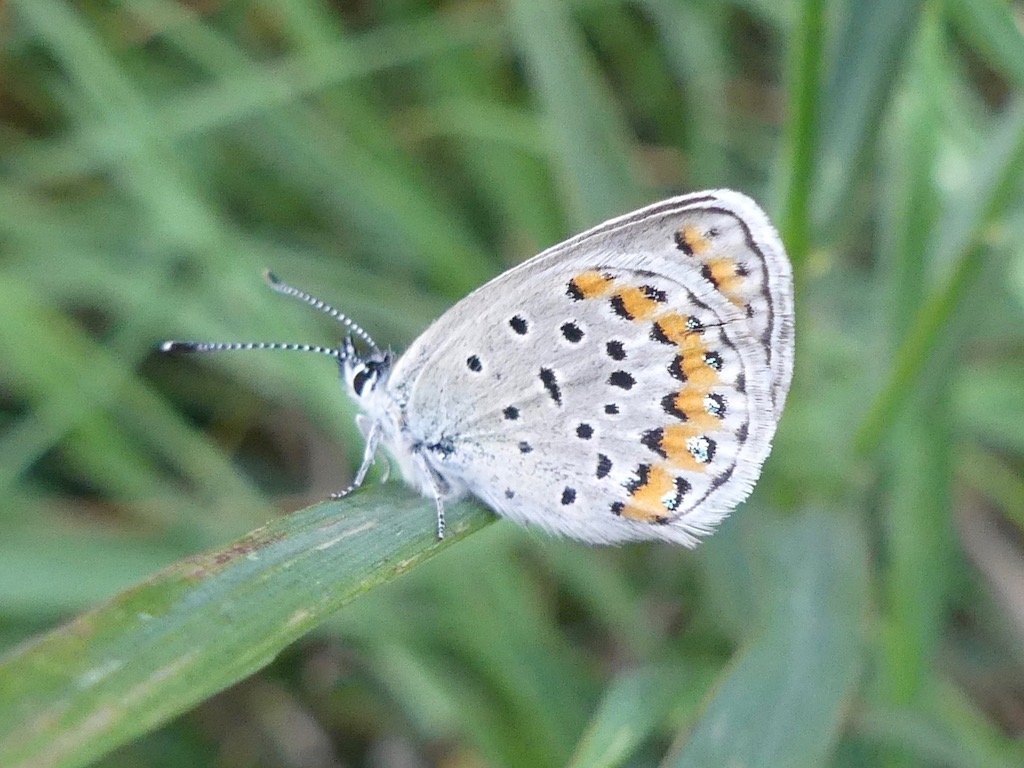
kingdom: Animalia
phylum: Arthropoda
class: Insecta
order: Lepidoptera
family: Lycaenidae
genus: Lycaeides
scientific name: Lycaeides melissa
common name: Melissa Blue
